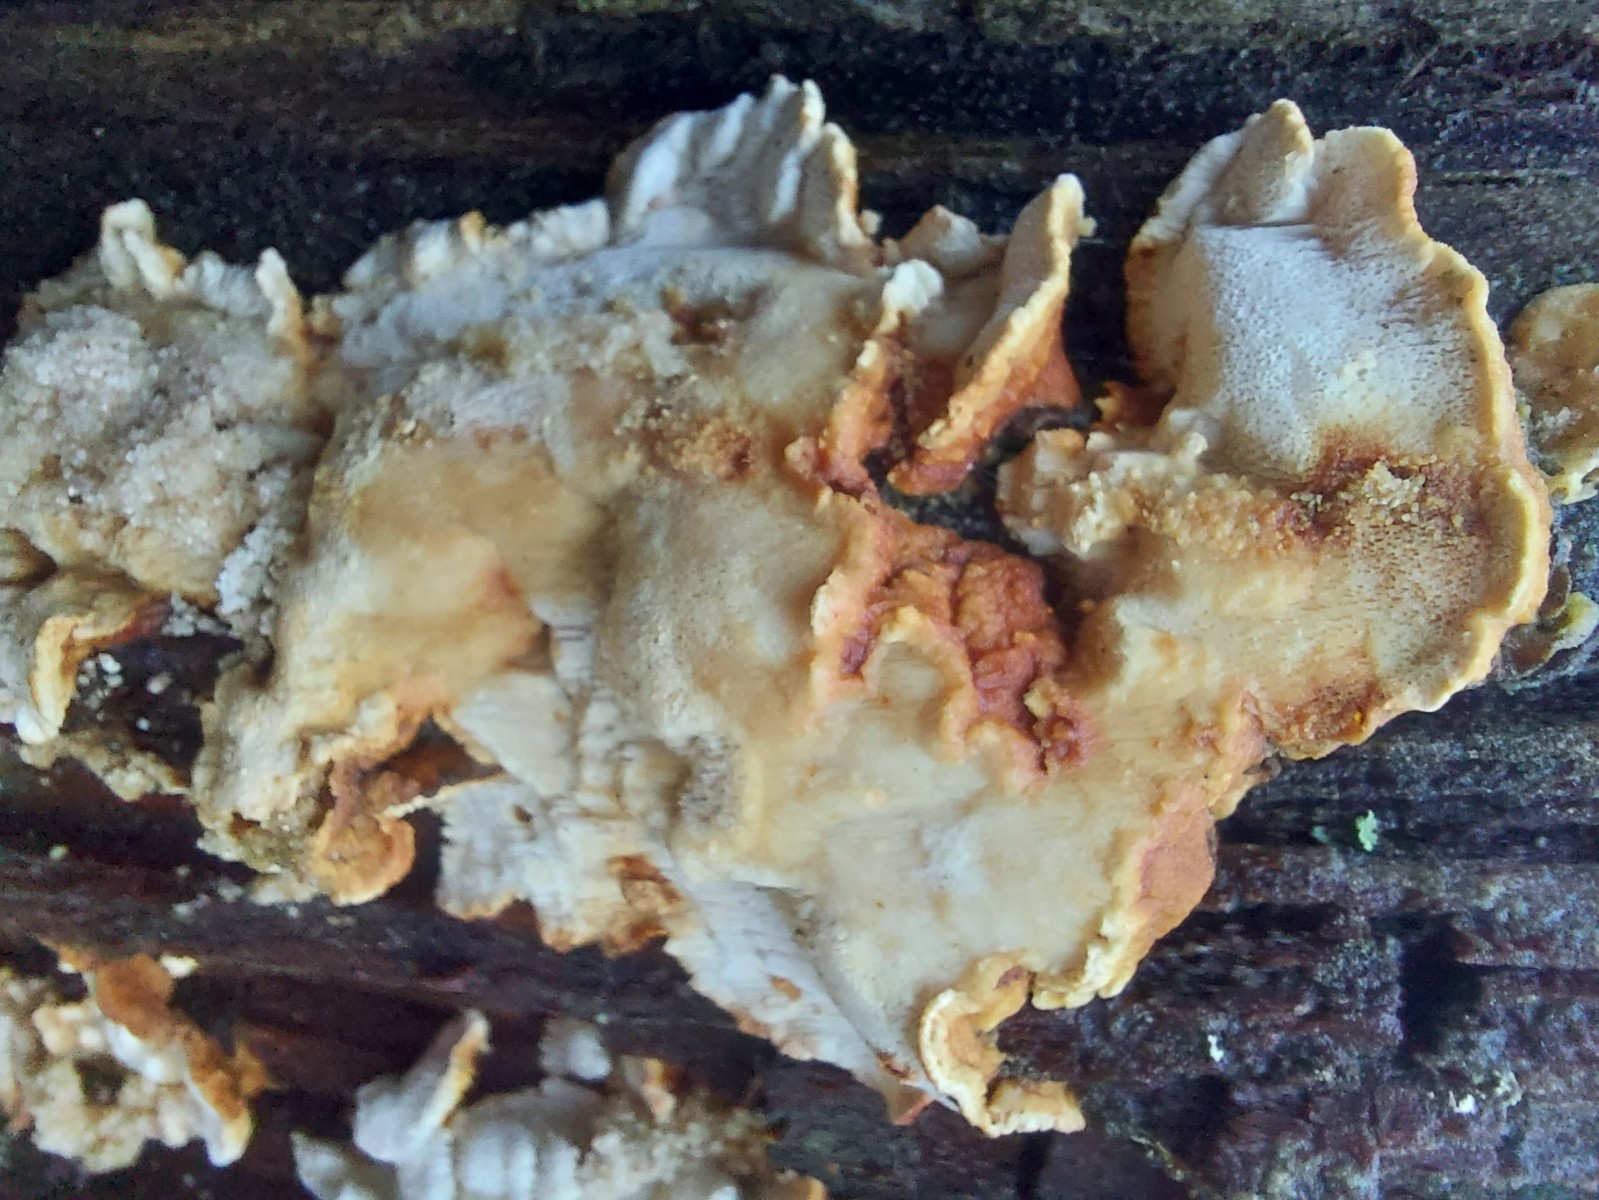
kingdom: Fungi
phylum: Basidiomycota
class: Agaricomycetes
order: Polyporales
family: Fomitopsidaceae
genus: Neoantrodia
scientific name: Neoantrodia serialis
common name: række-sejporesvamp
